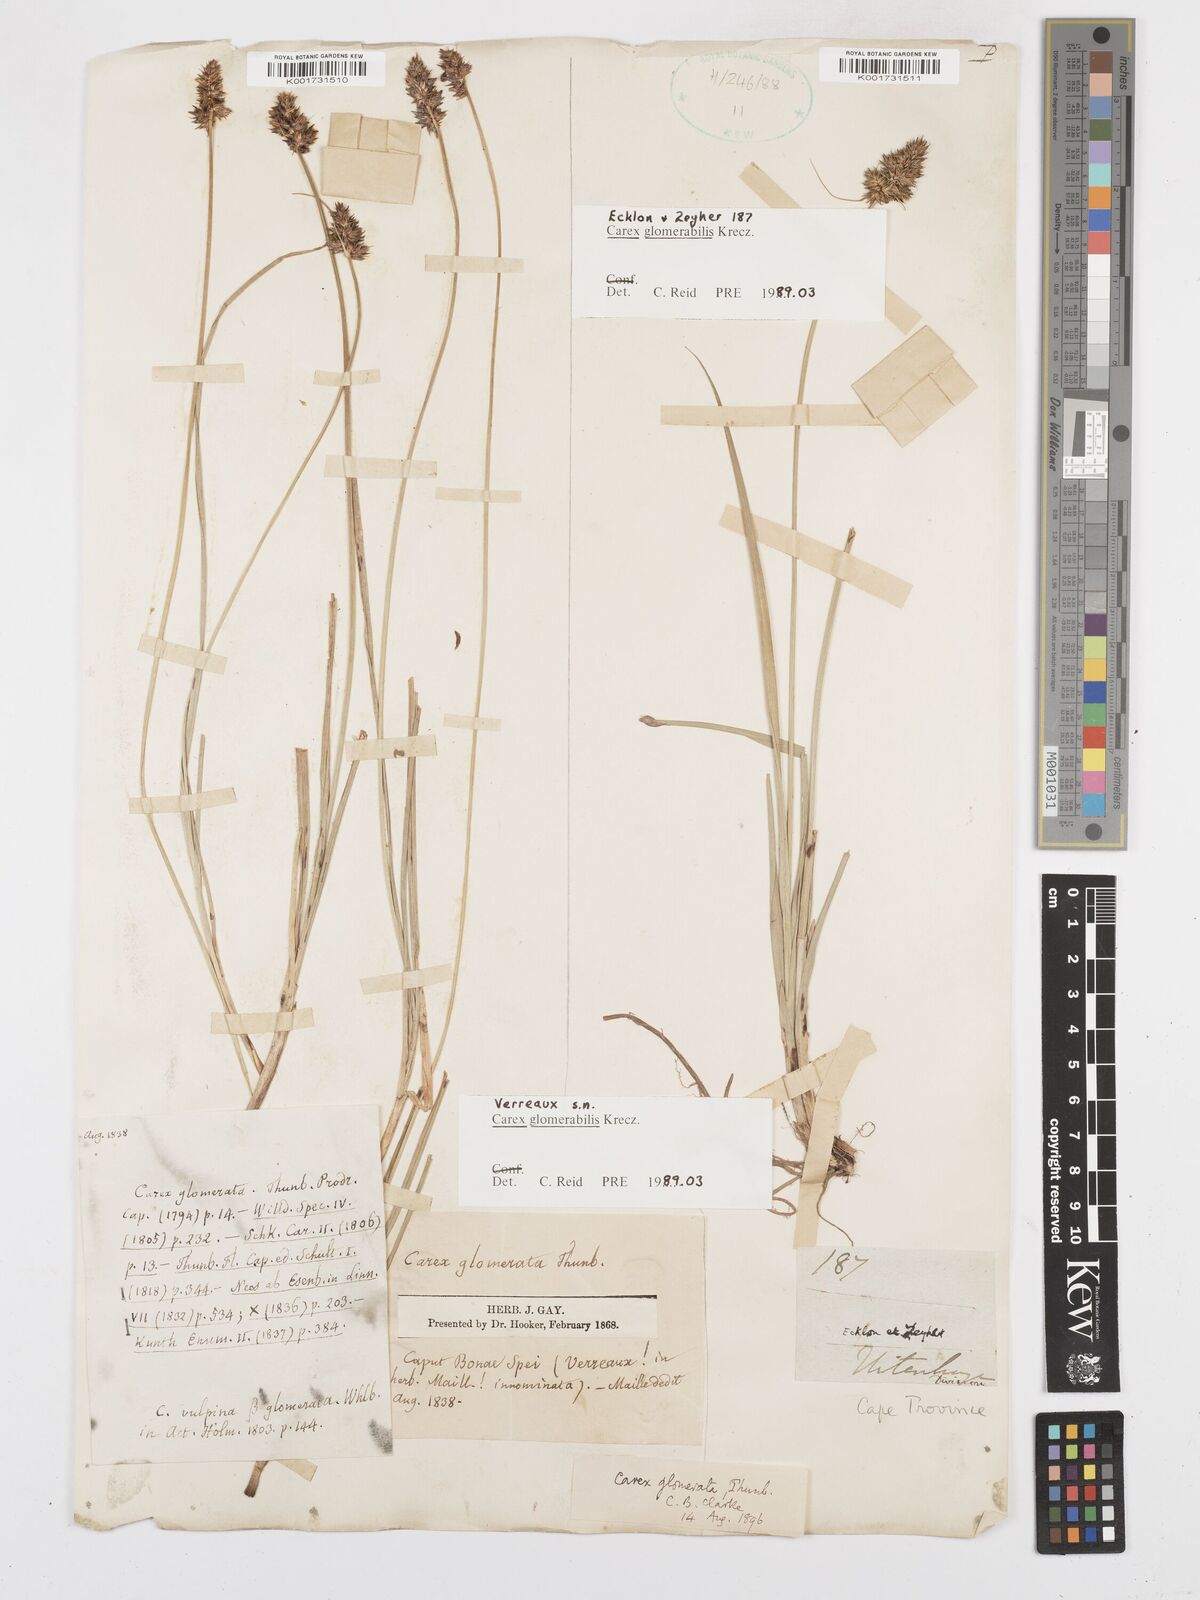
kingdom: Plantae
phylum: Tracheophyta
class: Liliopsida
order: Poales
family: Cyperaceae
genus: Carex
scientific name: Carex glomerata
